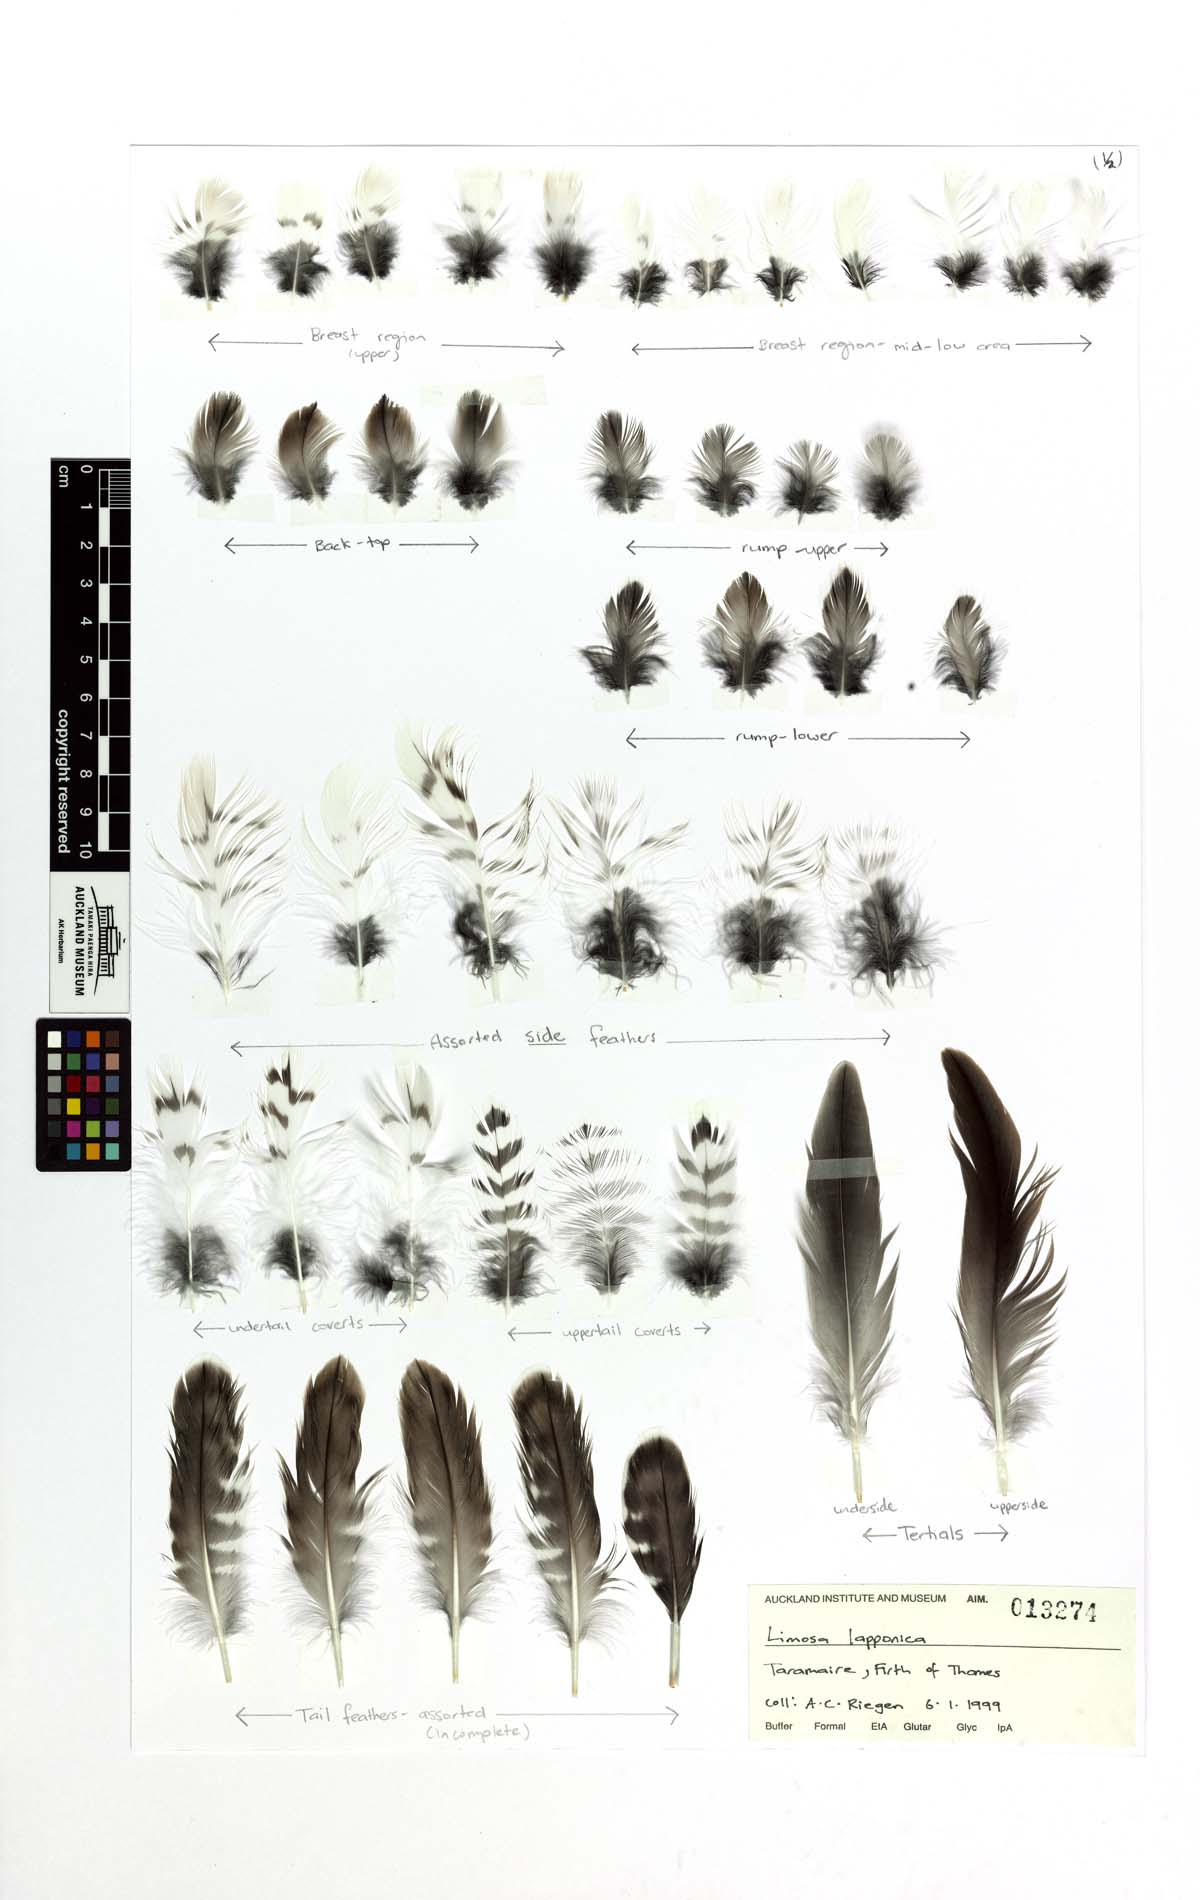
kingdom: Animalia
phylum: Chordata
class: Aves
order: Charadriiformes
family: Scolopacidae
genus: Limosa
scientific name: Limosa lapponica
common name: Bar-tailed godwit
